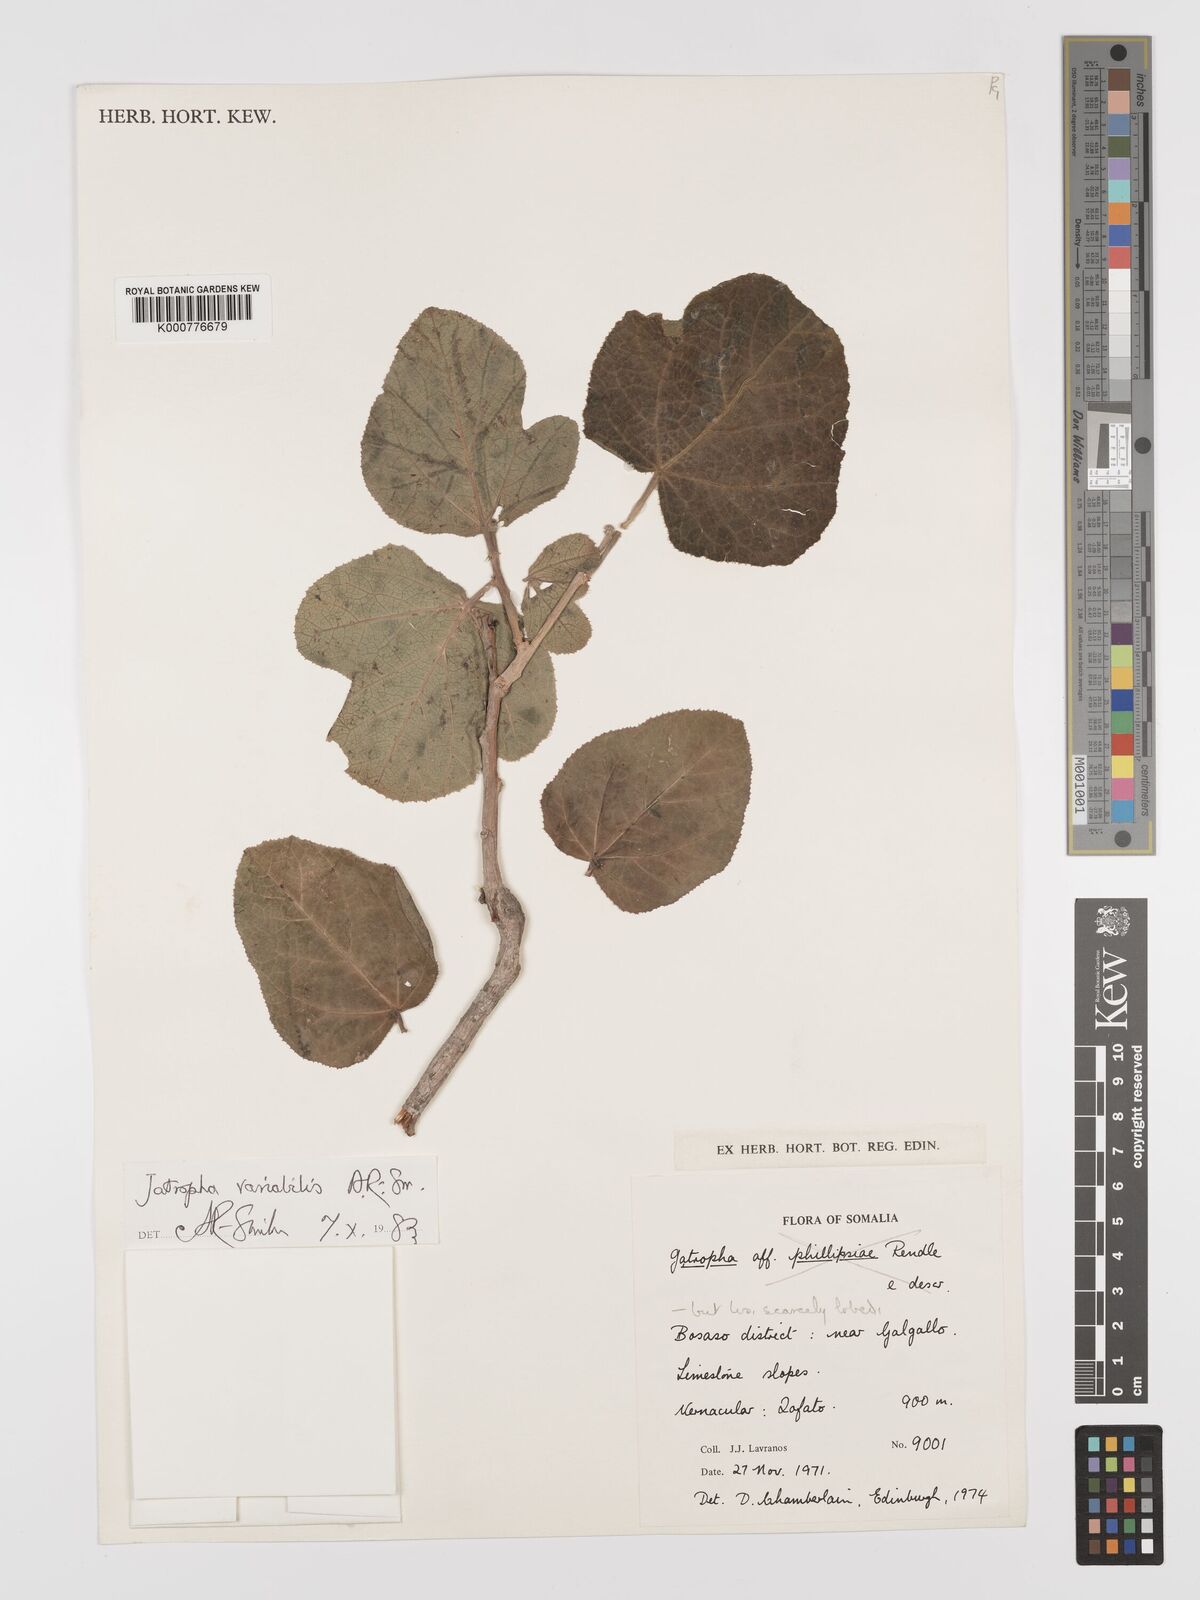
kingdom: Plantae
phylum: Tracheophyta
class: Magnoliopsida
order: Malpighiales
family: Euphorbiaceae
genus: Jatropha
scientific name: Jatropha variabilis
